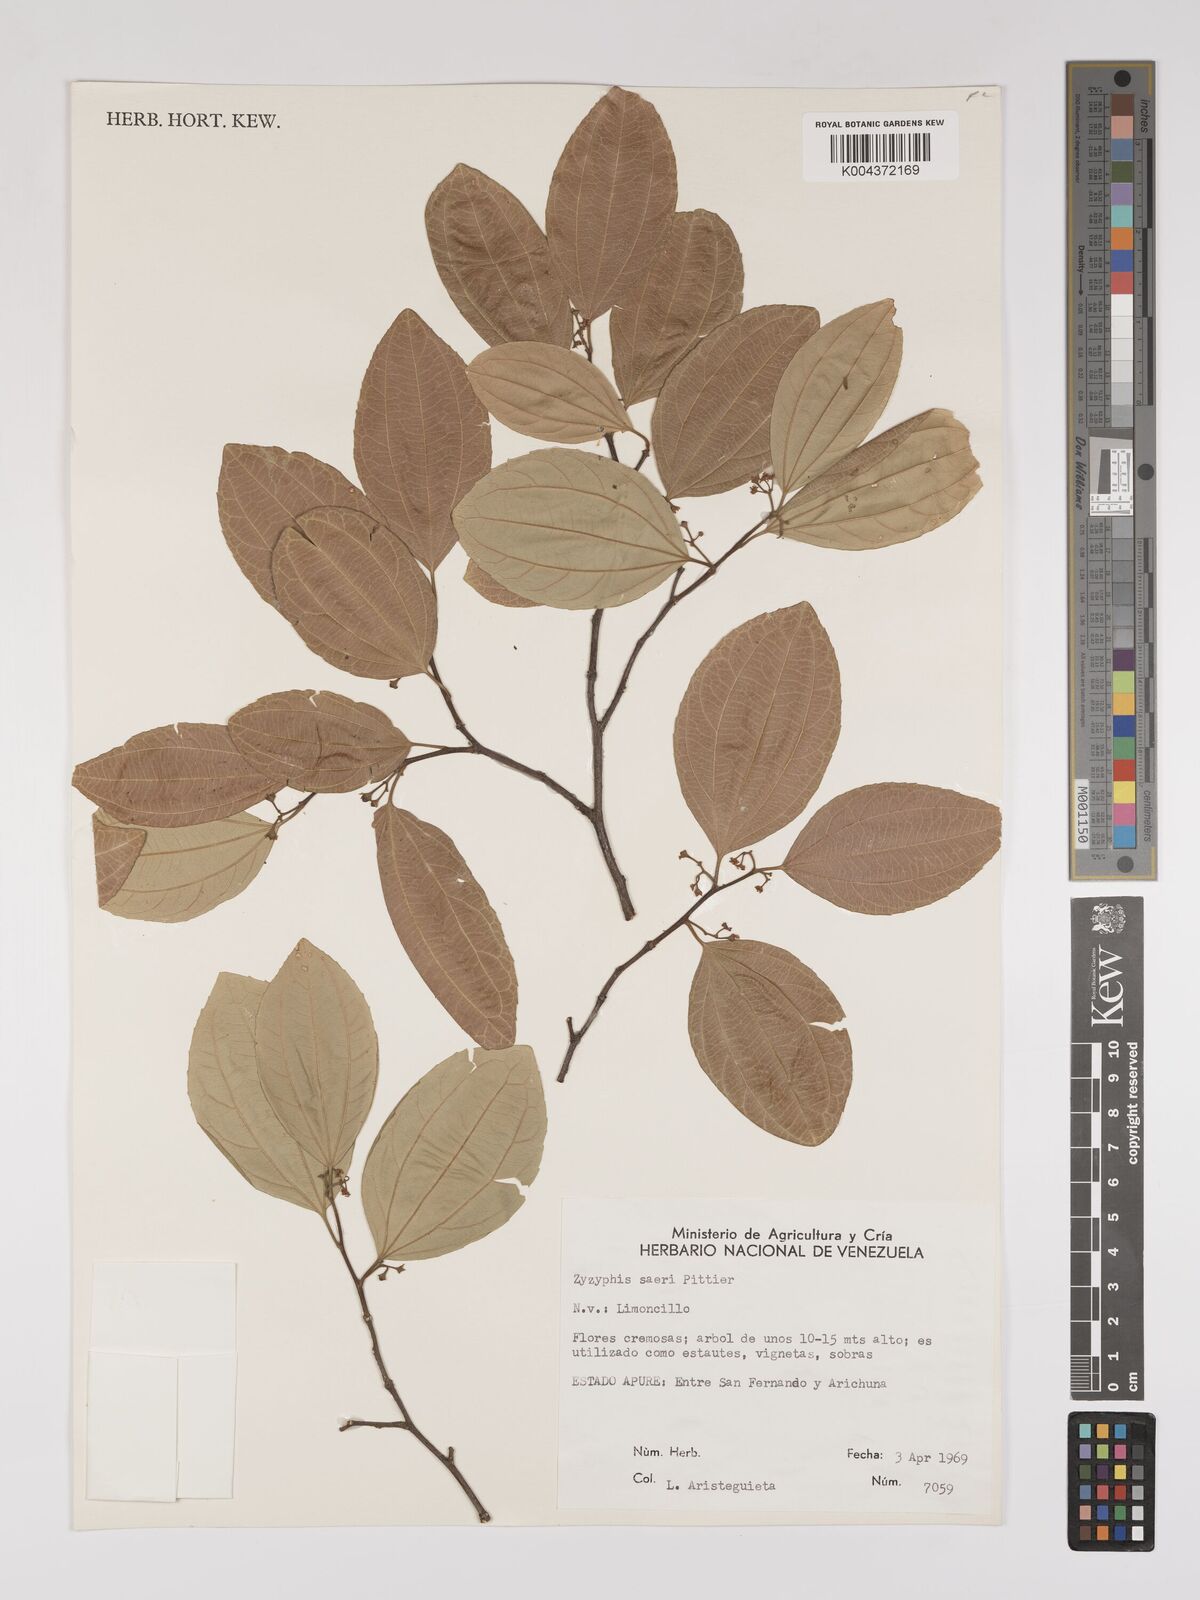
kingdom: Plantae
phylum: Tracheophyta
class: Magnoliopsida
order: Rosales
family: Rhamnaceae
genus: Sarcomphalus
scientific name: Sarcomphalus saeri
